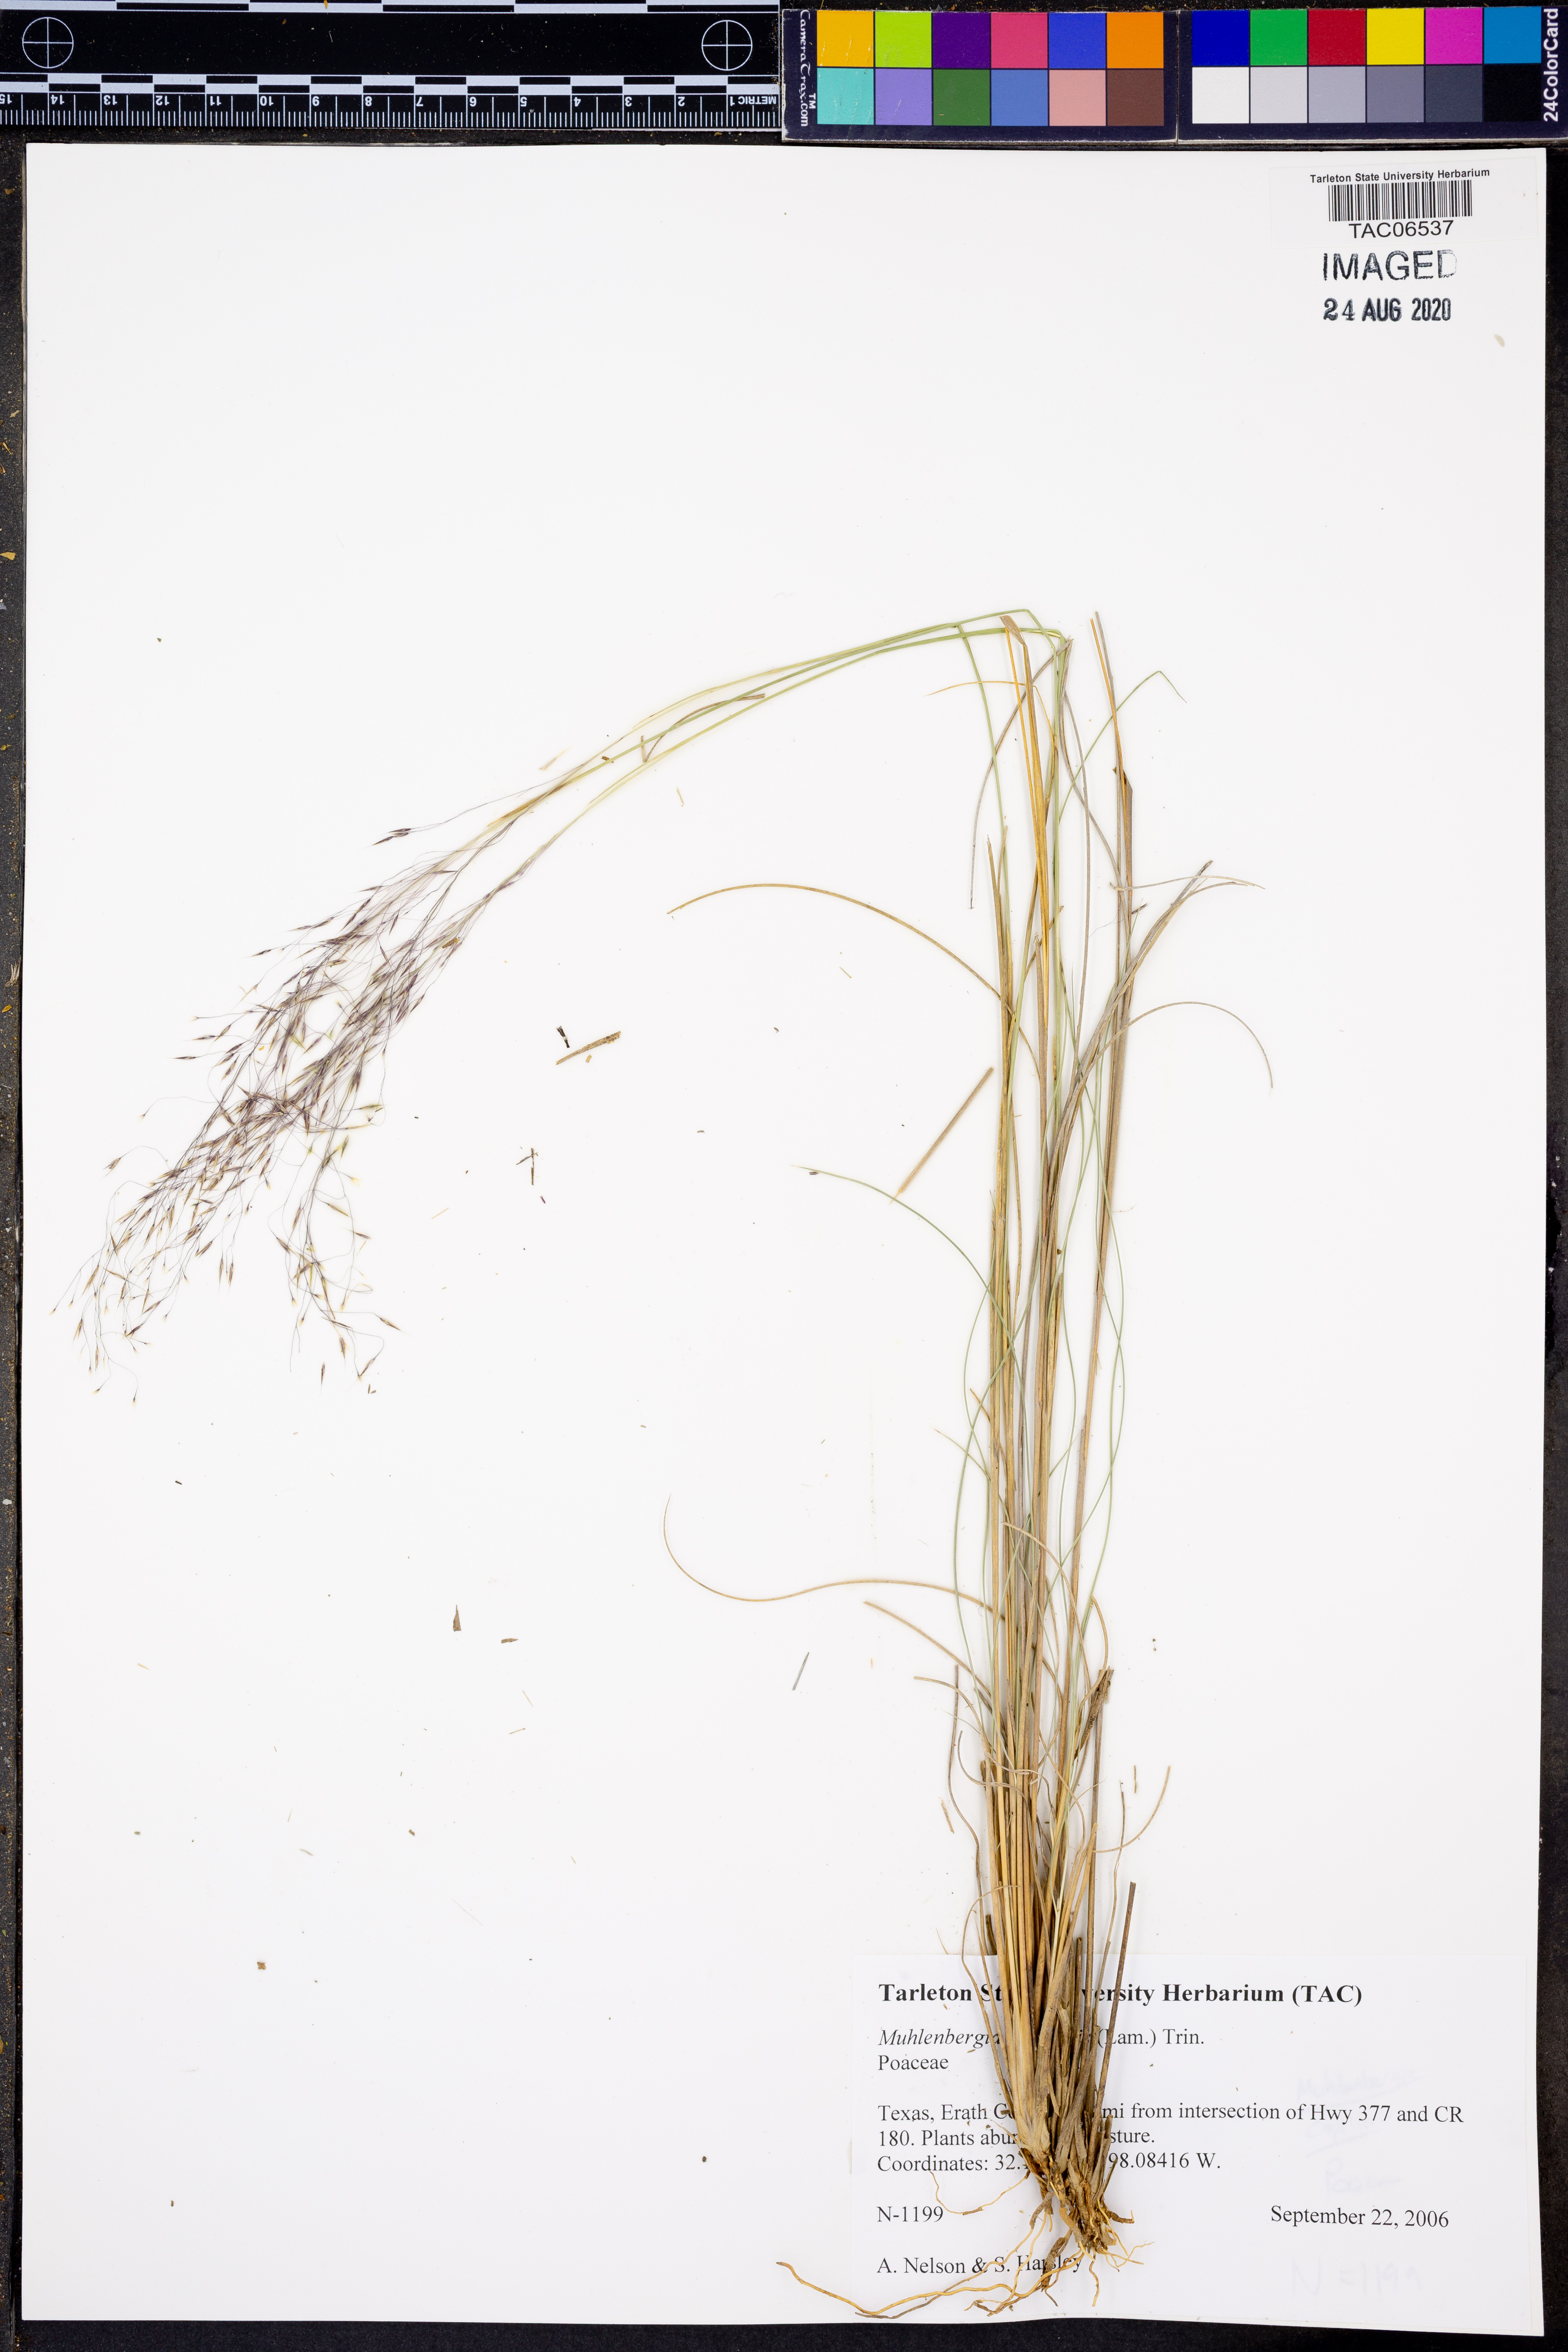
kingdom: Plantae
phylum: Tracheophyta
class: Liliopsida
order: Poales
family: Poaceae
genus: Muhlenbergia
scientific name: Muhlenbergia capillaris
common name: Purple grass
